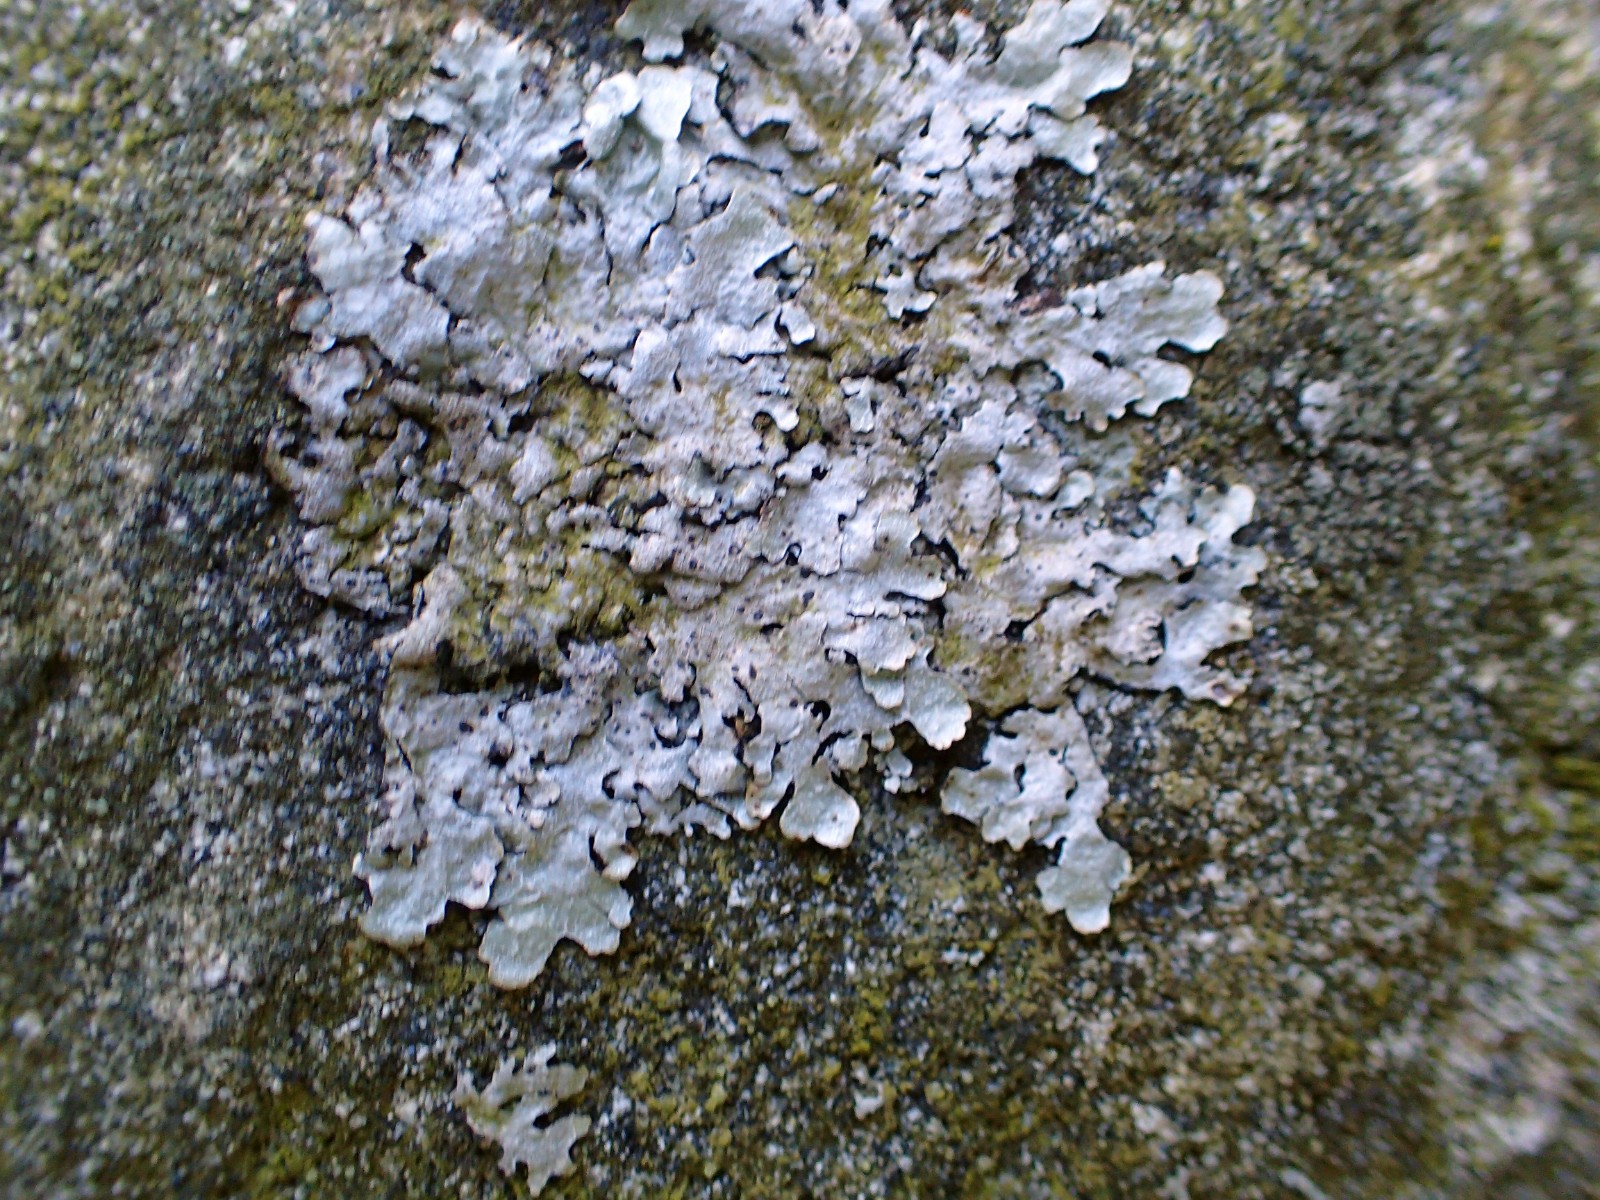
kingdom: Fungi
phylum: Ascomycota
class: Lecanoromycetes
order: Lecanorales
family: Parmeliaceae
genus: Parmelia
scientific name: Parmelia
